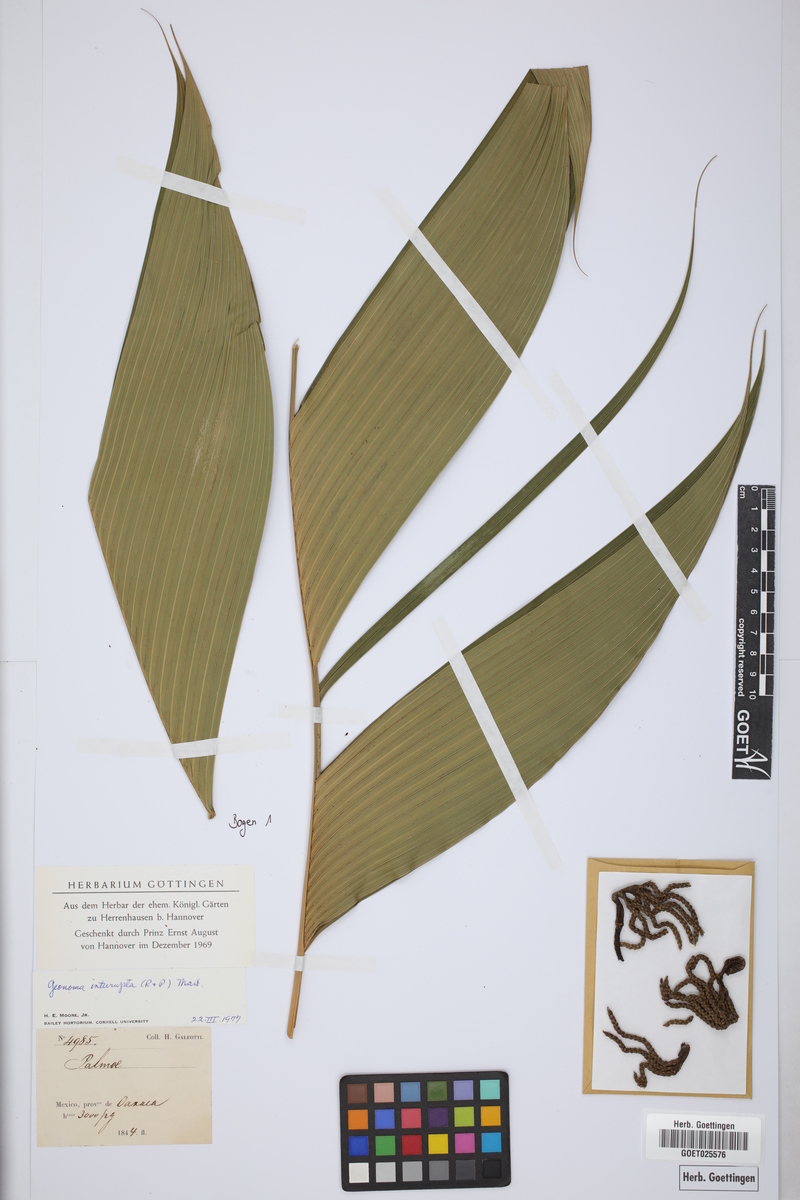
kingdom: Plantae
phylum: Tracheophyta
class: Liliopsida
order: Arecales
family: Arecaceae
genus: Geonoma
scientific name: Geonoma interrupta
